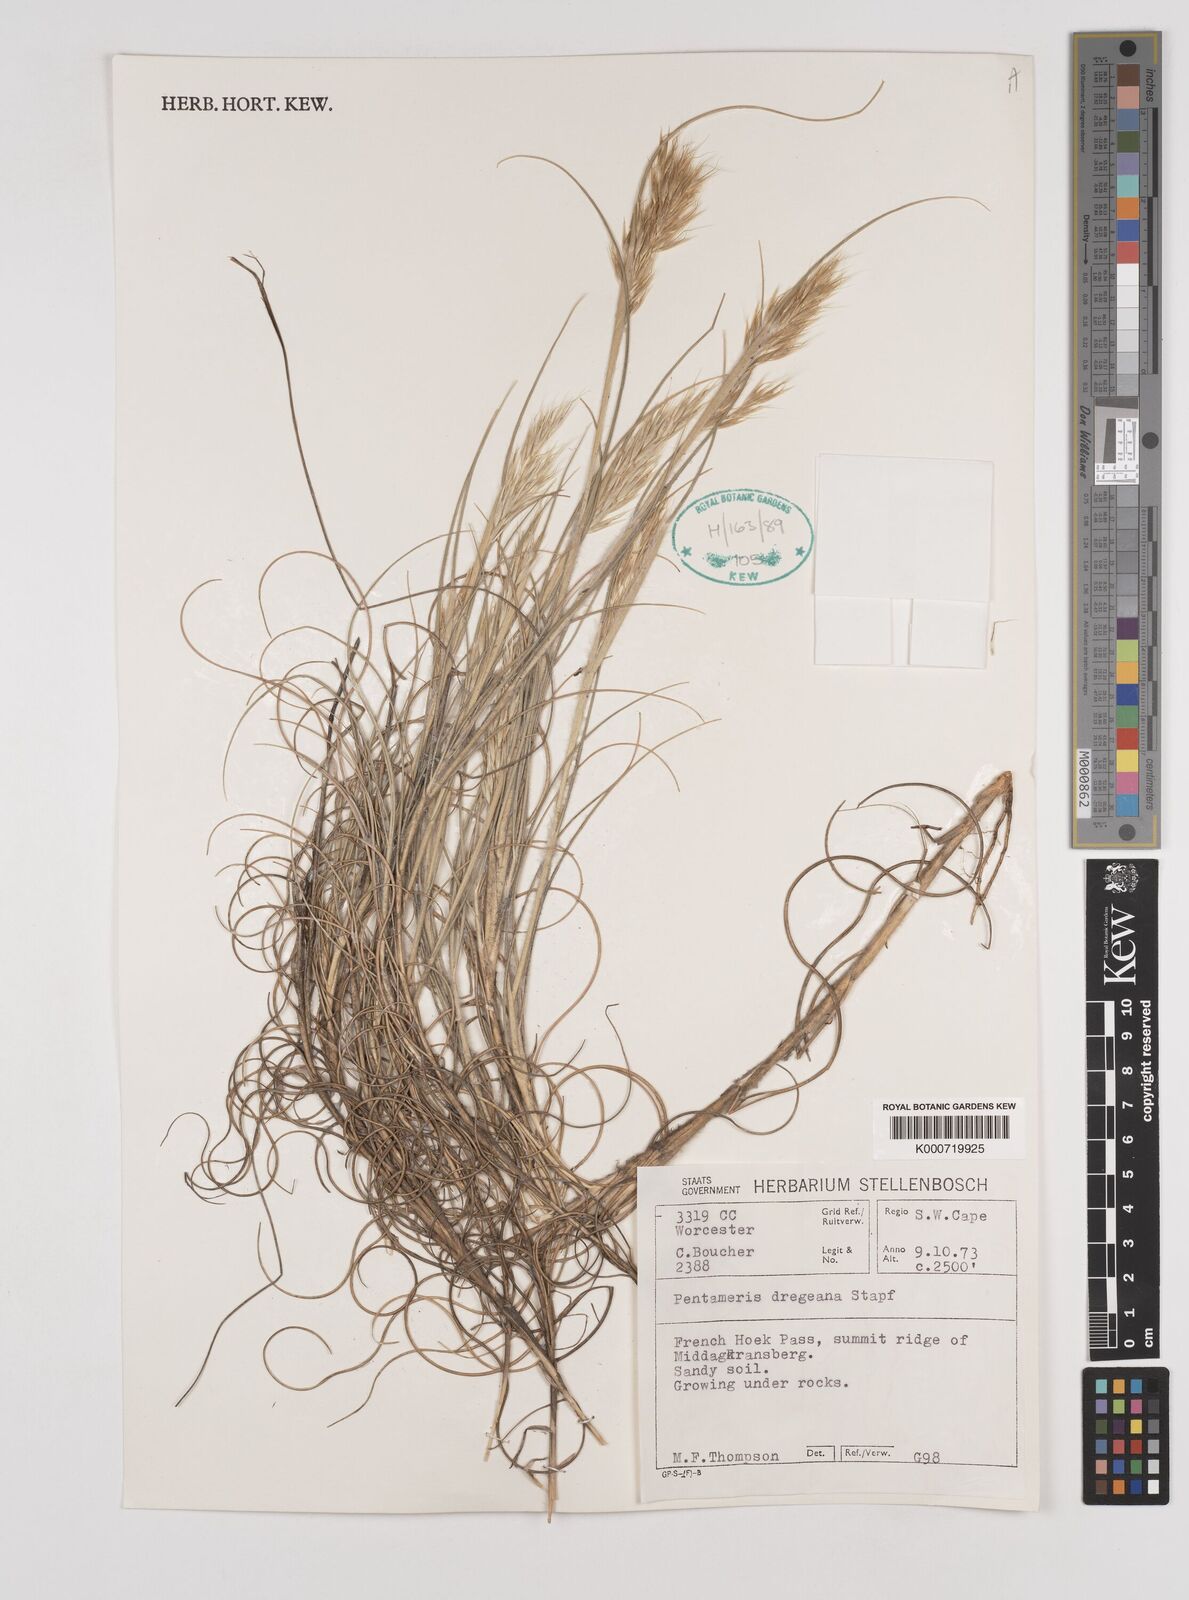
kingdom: Plantae
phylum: Tracheophyta
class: Liliopsida
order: Poales
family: Poaceae
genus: Pentameris
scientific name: Pentameris dregeana
